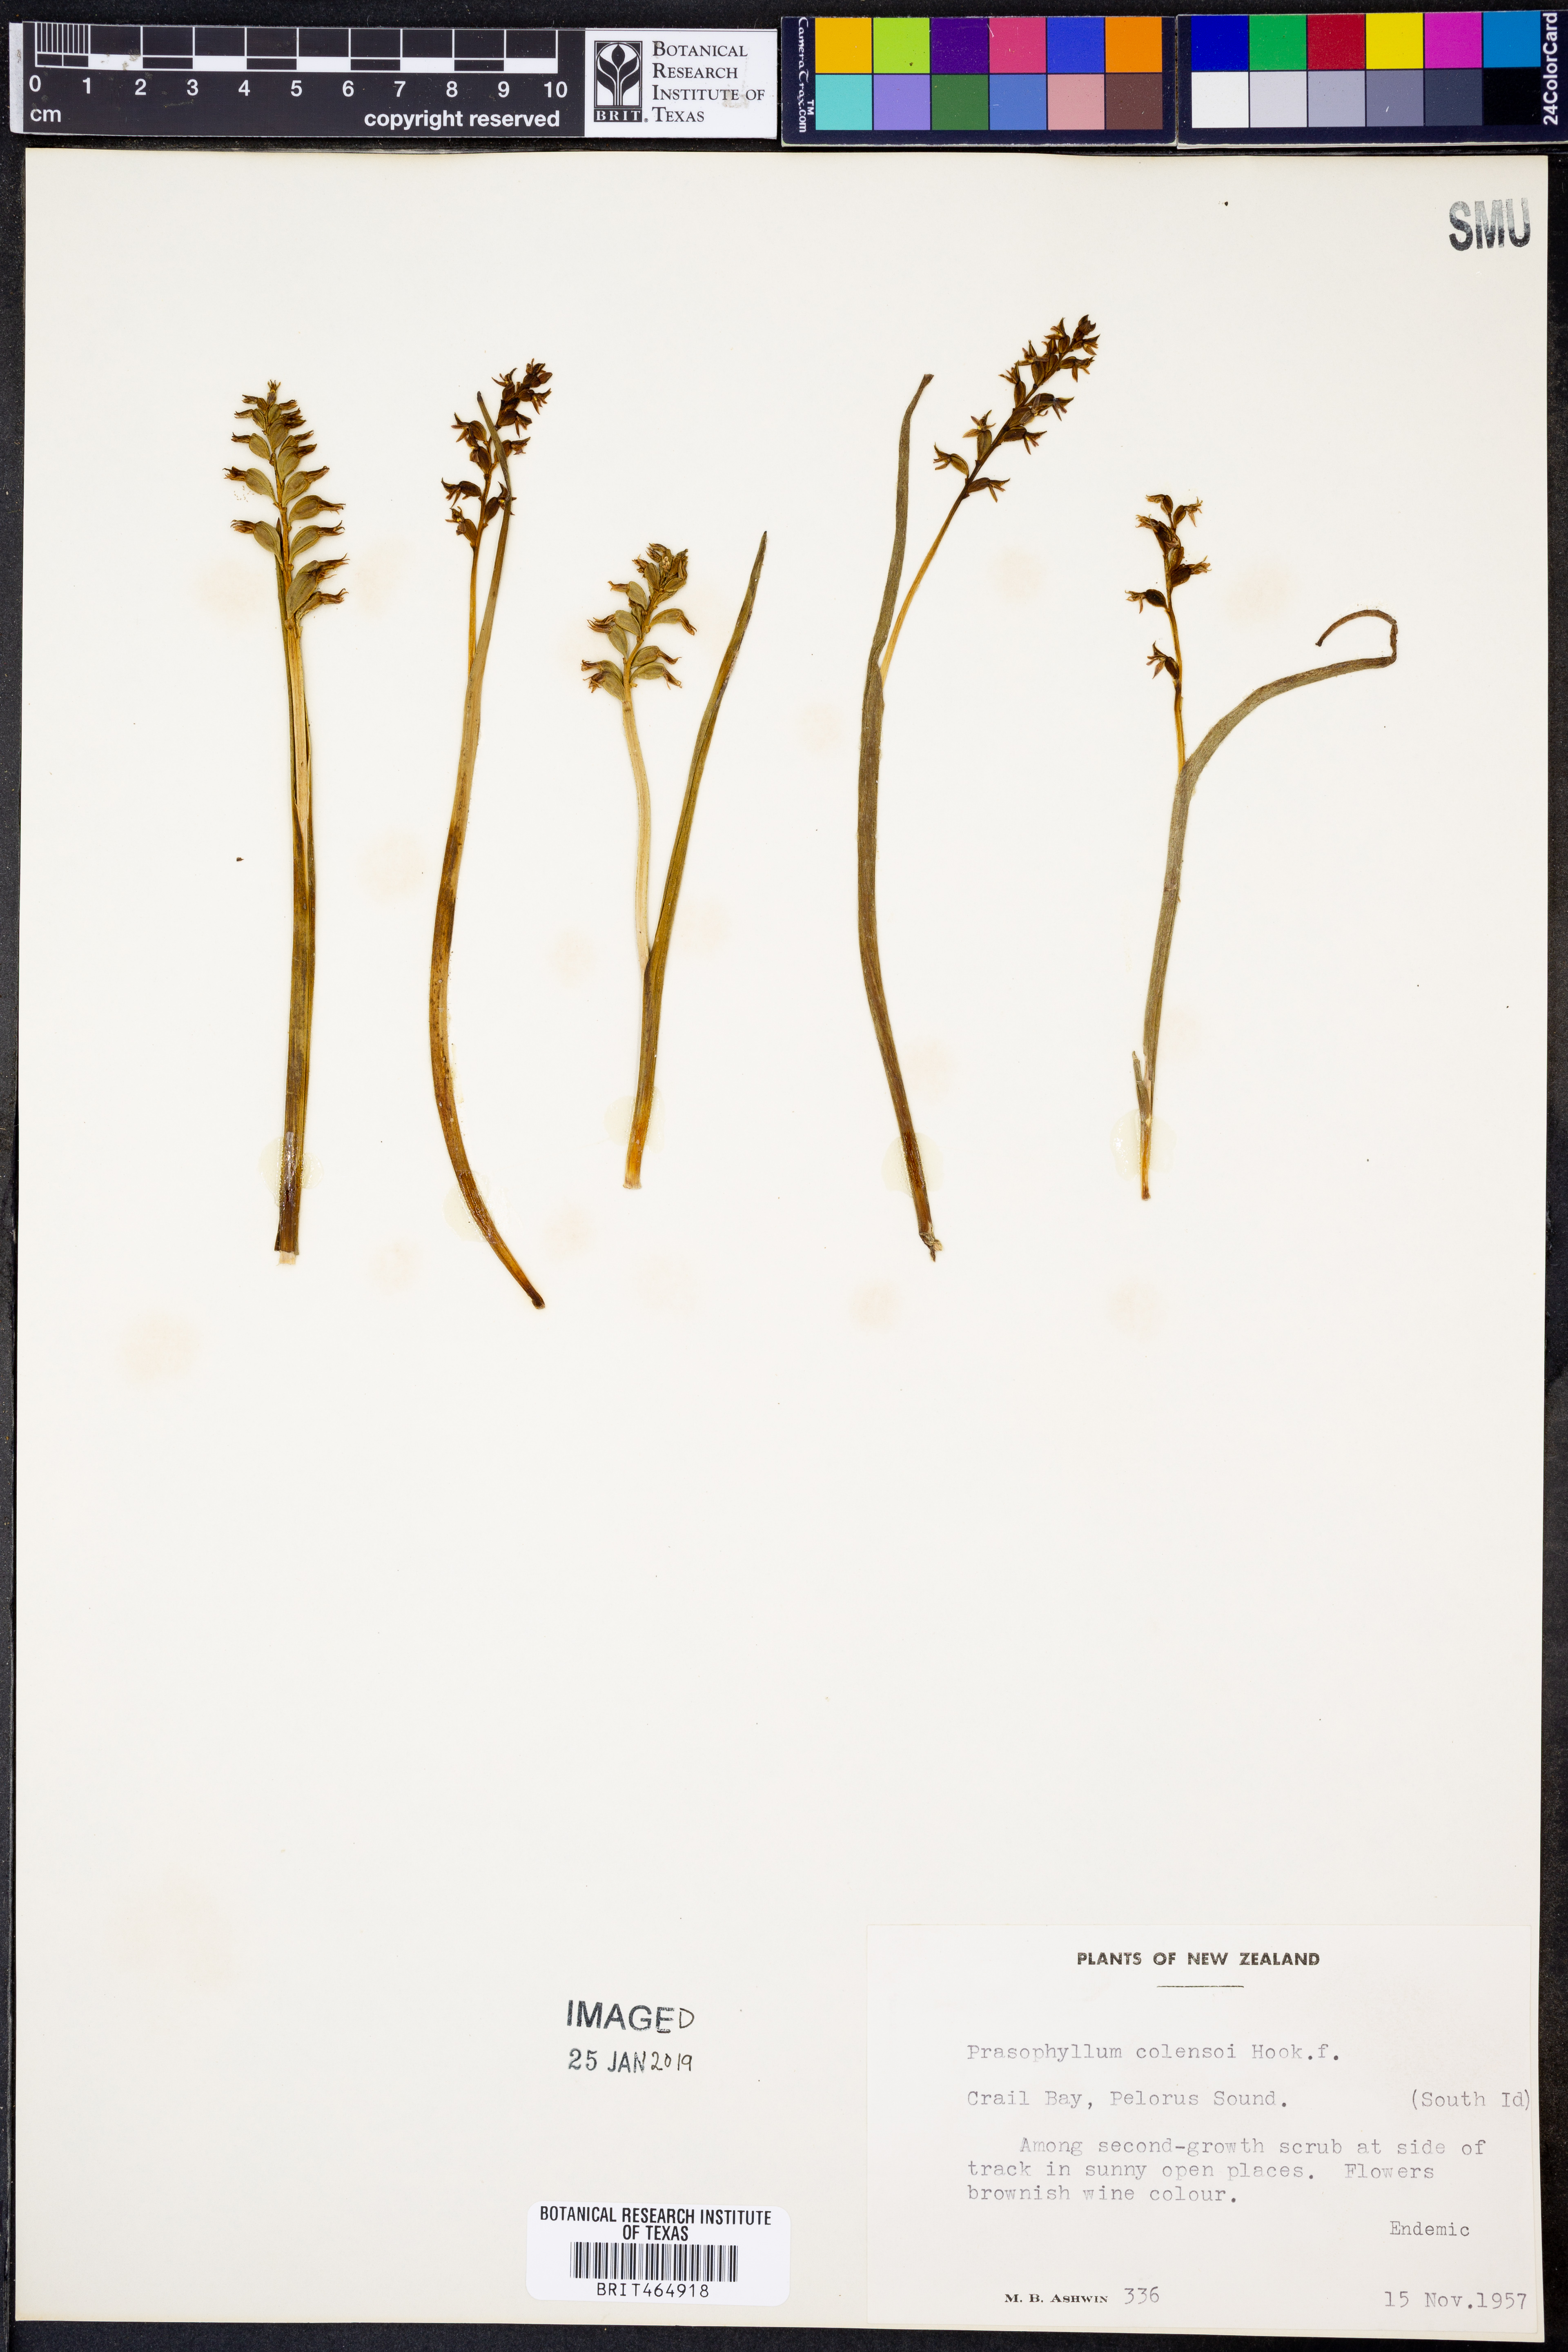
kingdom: Plantae
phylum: Tracheophyta
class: Liliopsida
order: Asparagales
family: Orchidaceae
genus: Prasophyllum
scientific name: Prasophyllum colensoi
